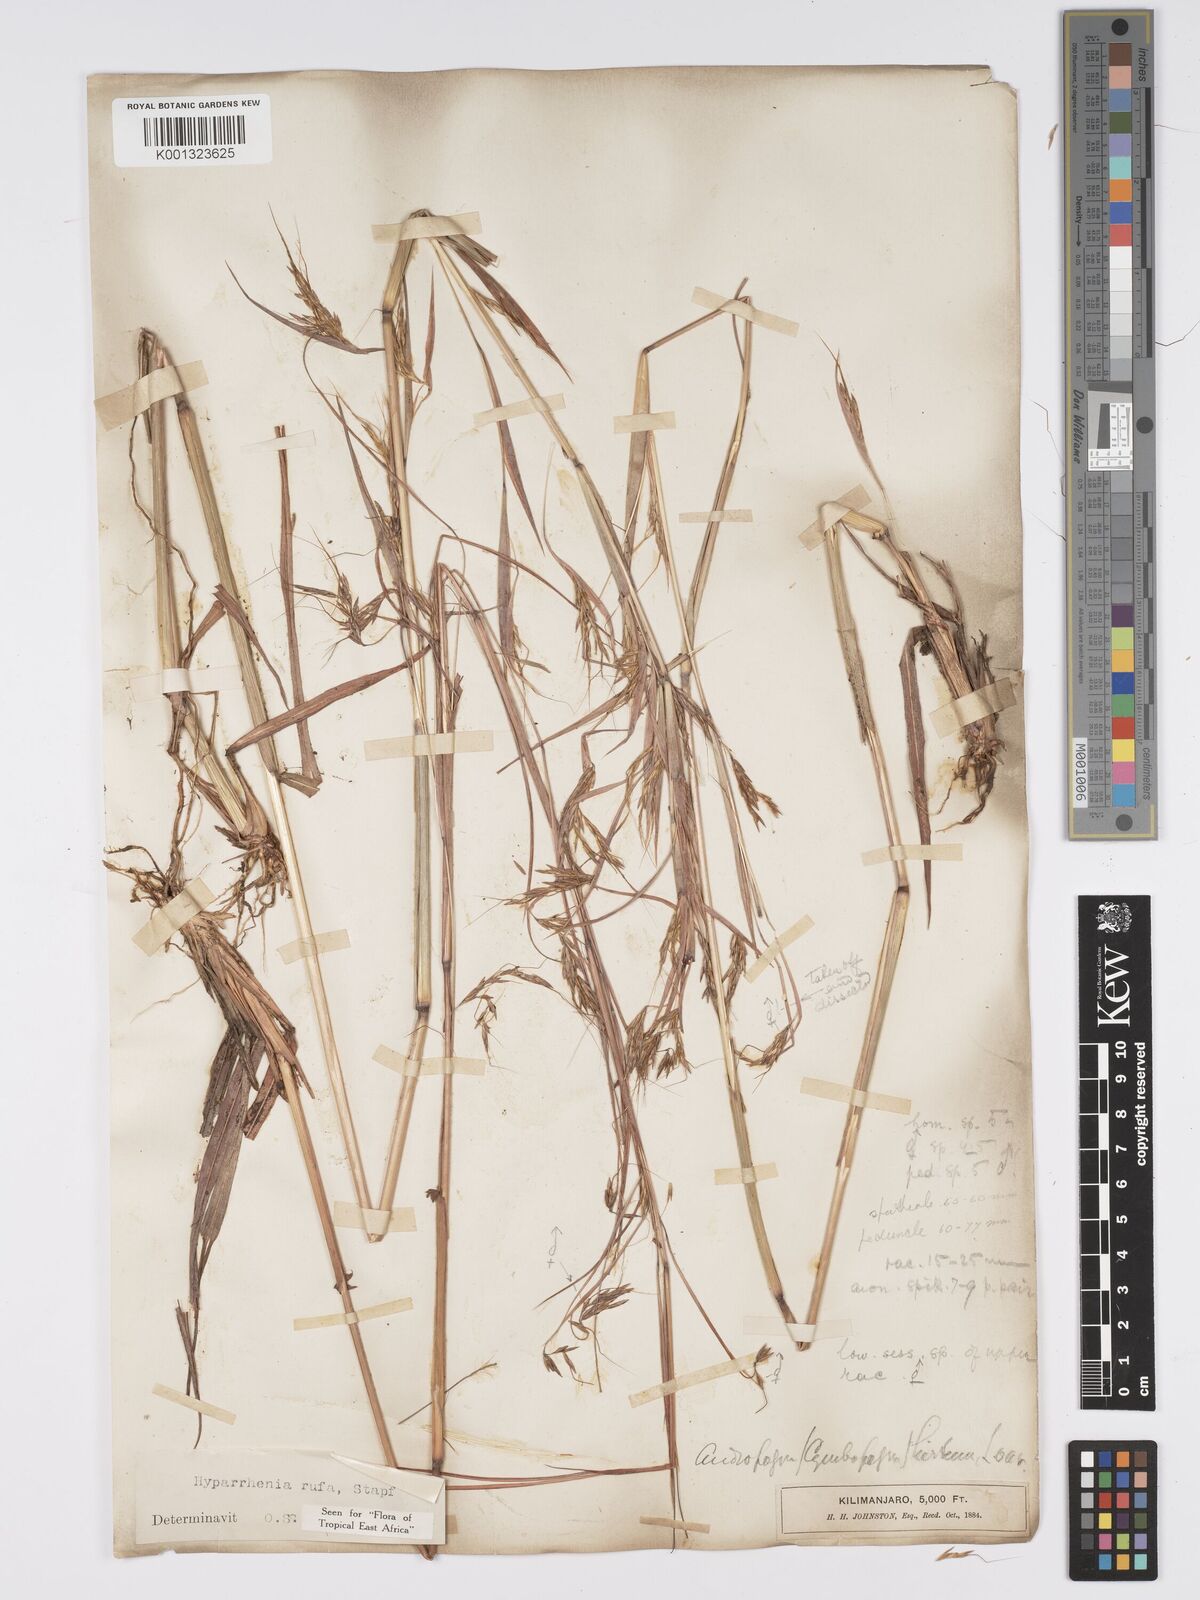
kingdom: Plantae
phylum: Tracheophyta
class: Liliopsida
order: Poales
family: Poaceae
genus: Hyparrhenia
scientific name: Hyparrhenia rufa
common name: Jaraguagrass
